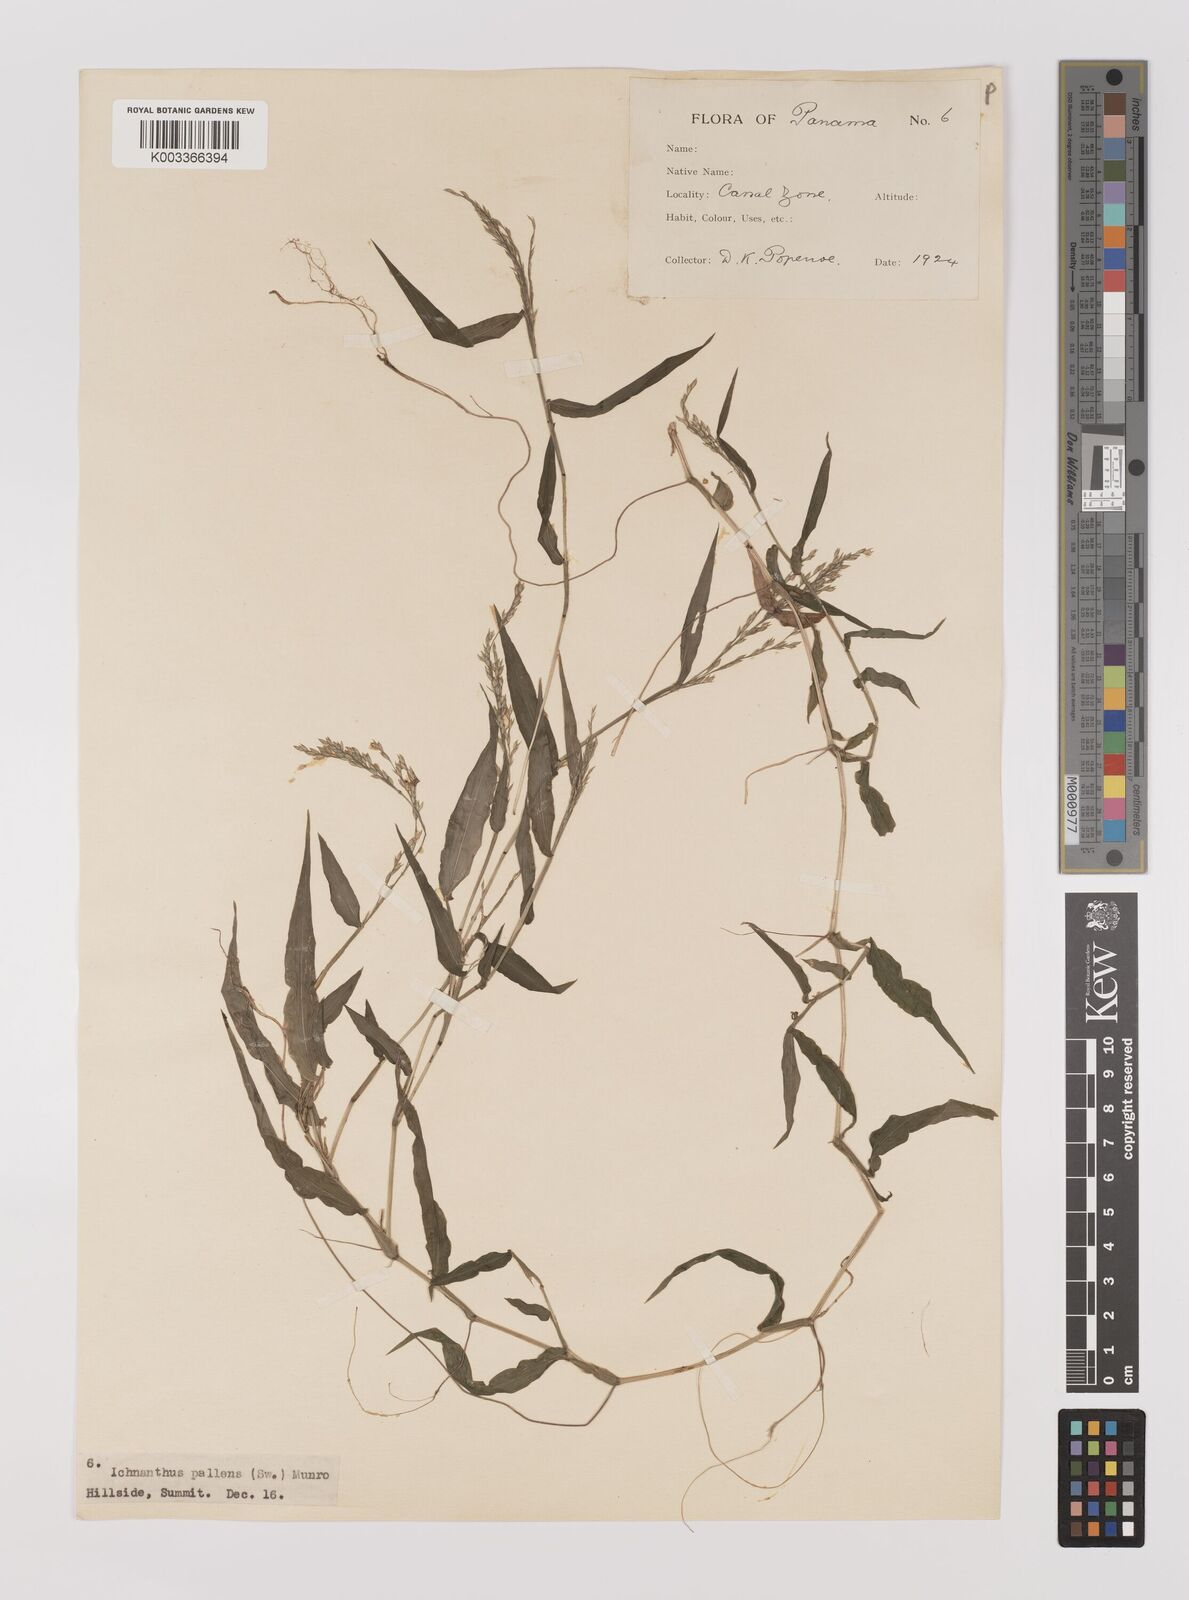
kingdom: Plantae
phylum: Tracheophyta
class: Liliopsida
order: Poales
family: Poaceae
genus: Ichnanthus
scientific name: Ichnanthus pallens
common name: Water grass
